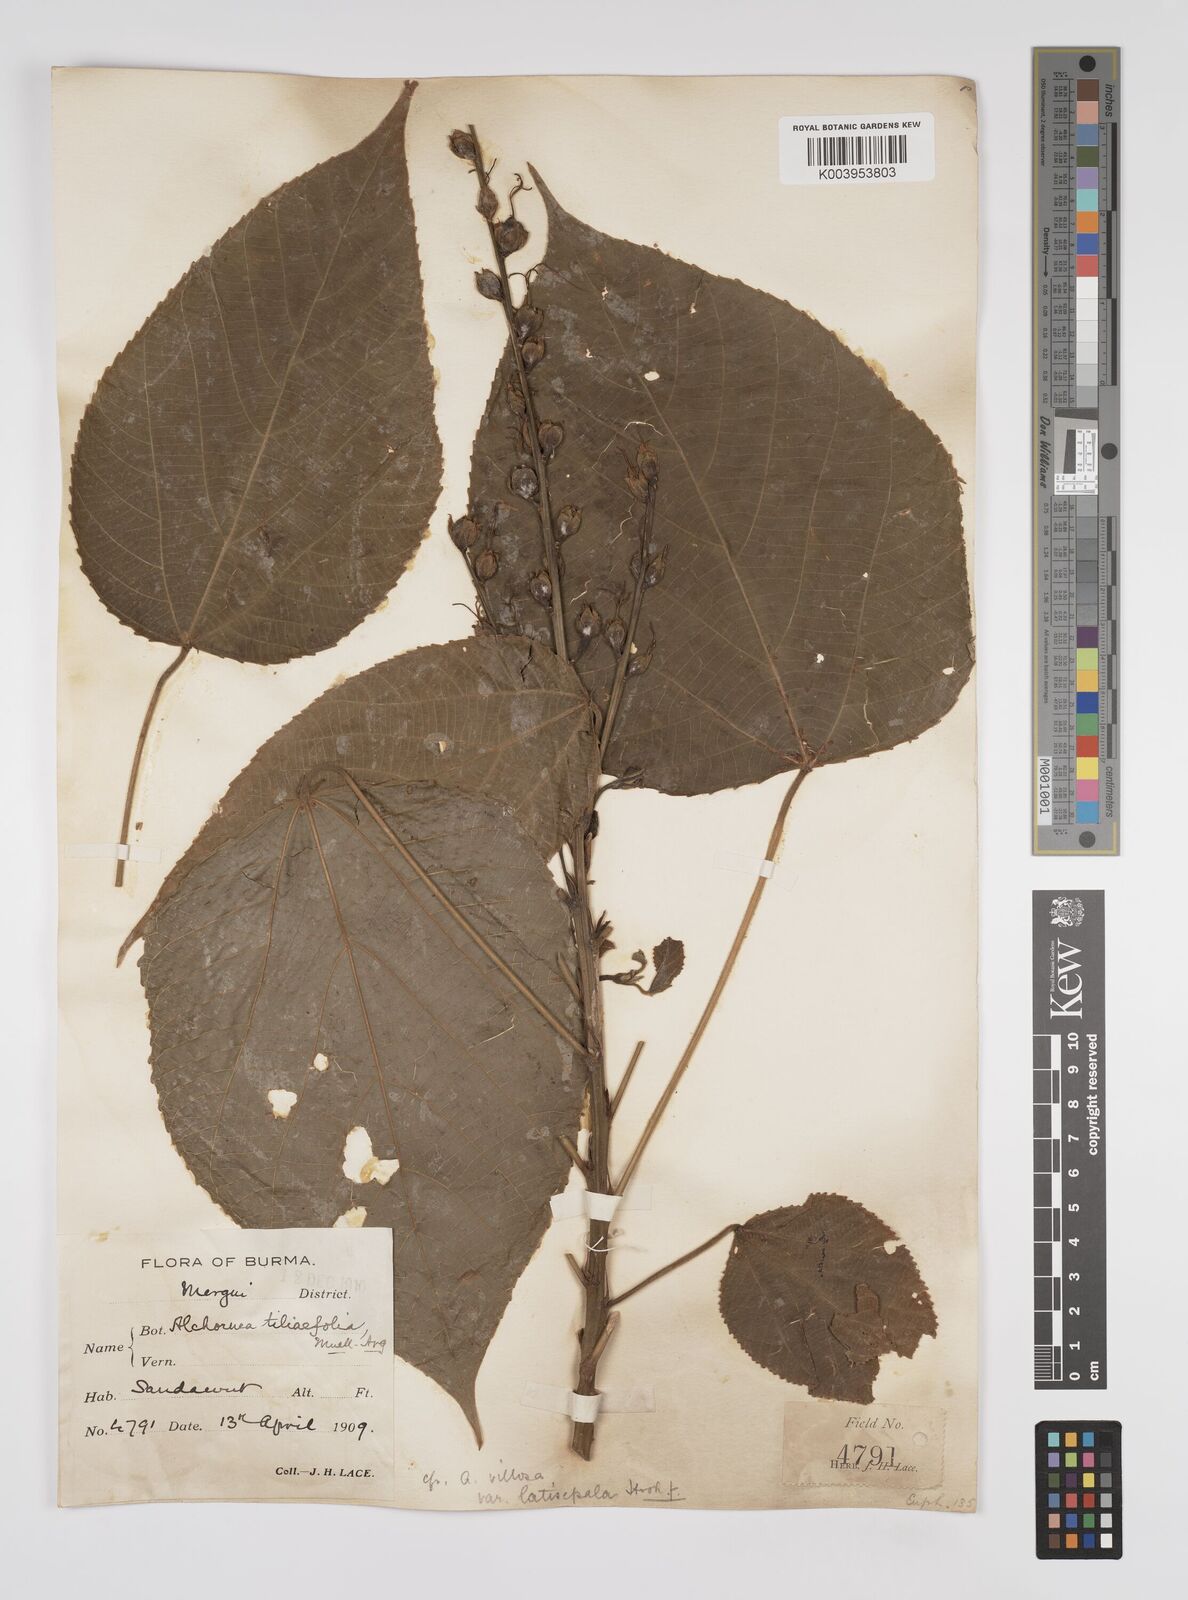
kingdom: Plantae
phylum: Tracheophyta
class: Magnoliopsida
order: Malpighiales
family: Euphorbiaceae
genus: Alchornea
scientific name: Alchornea tiliifolia
